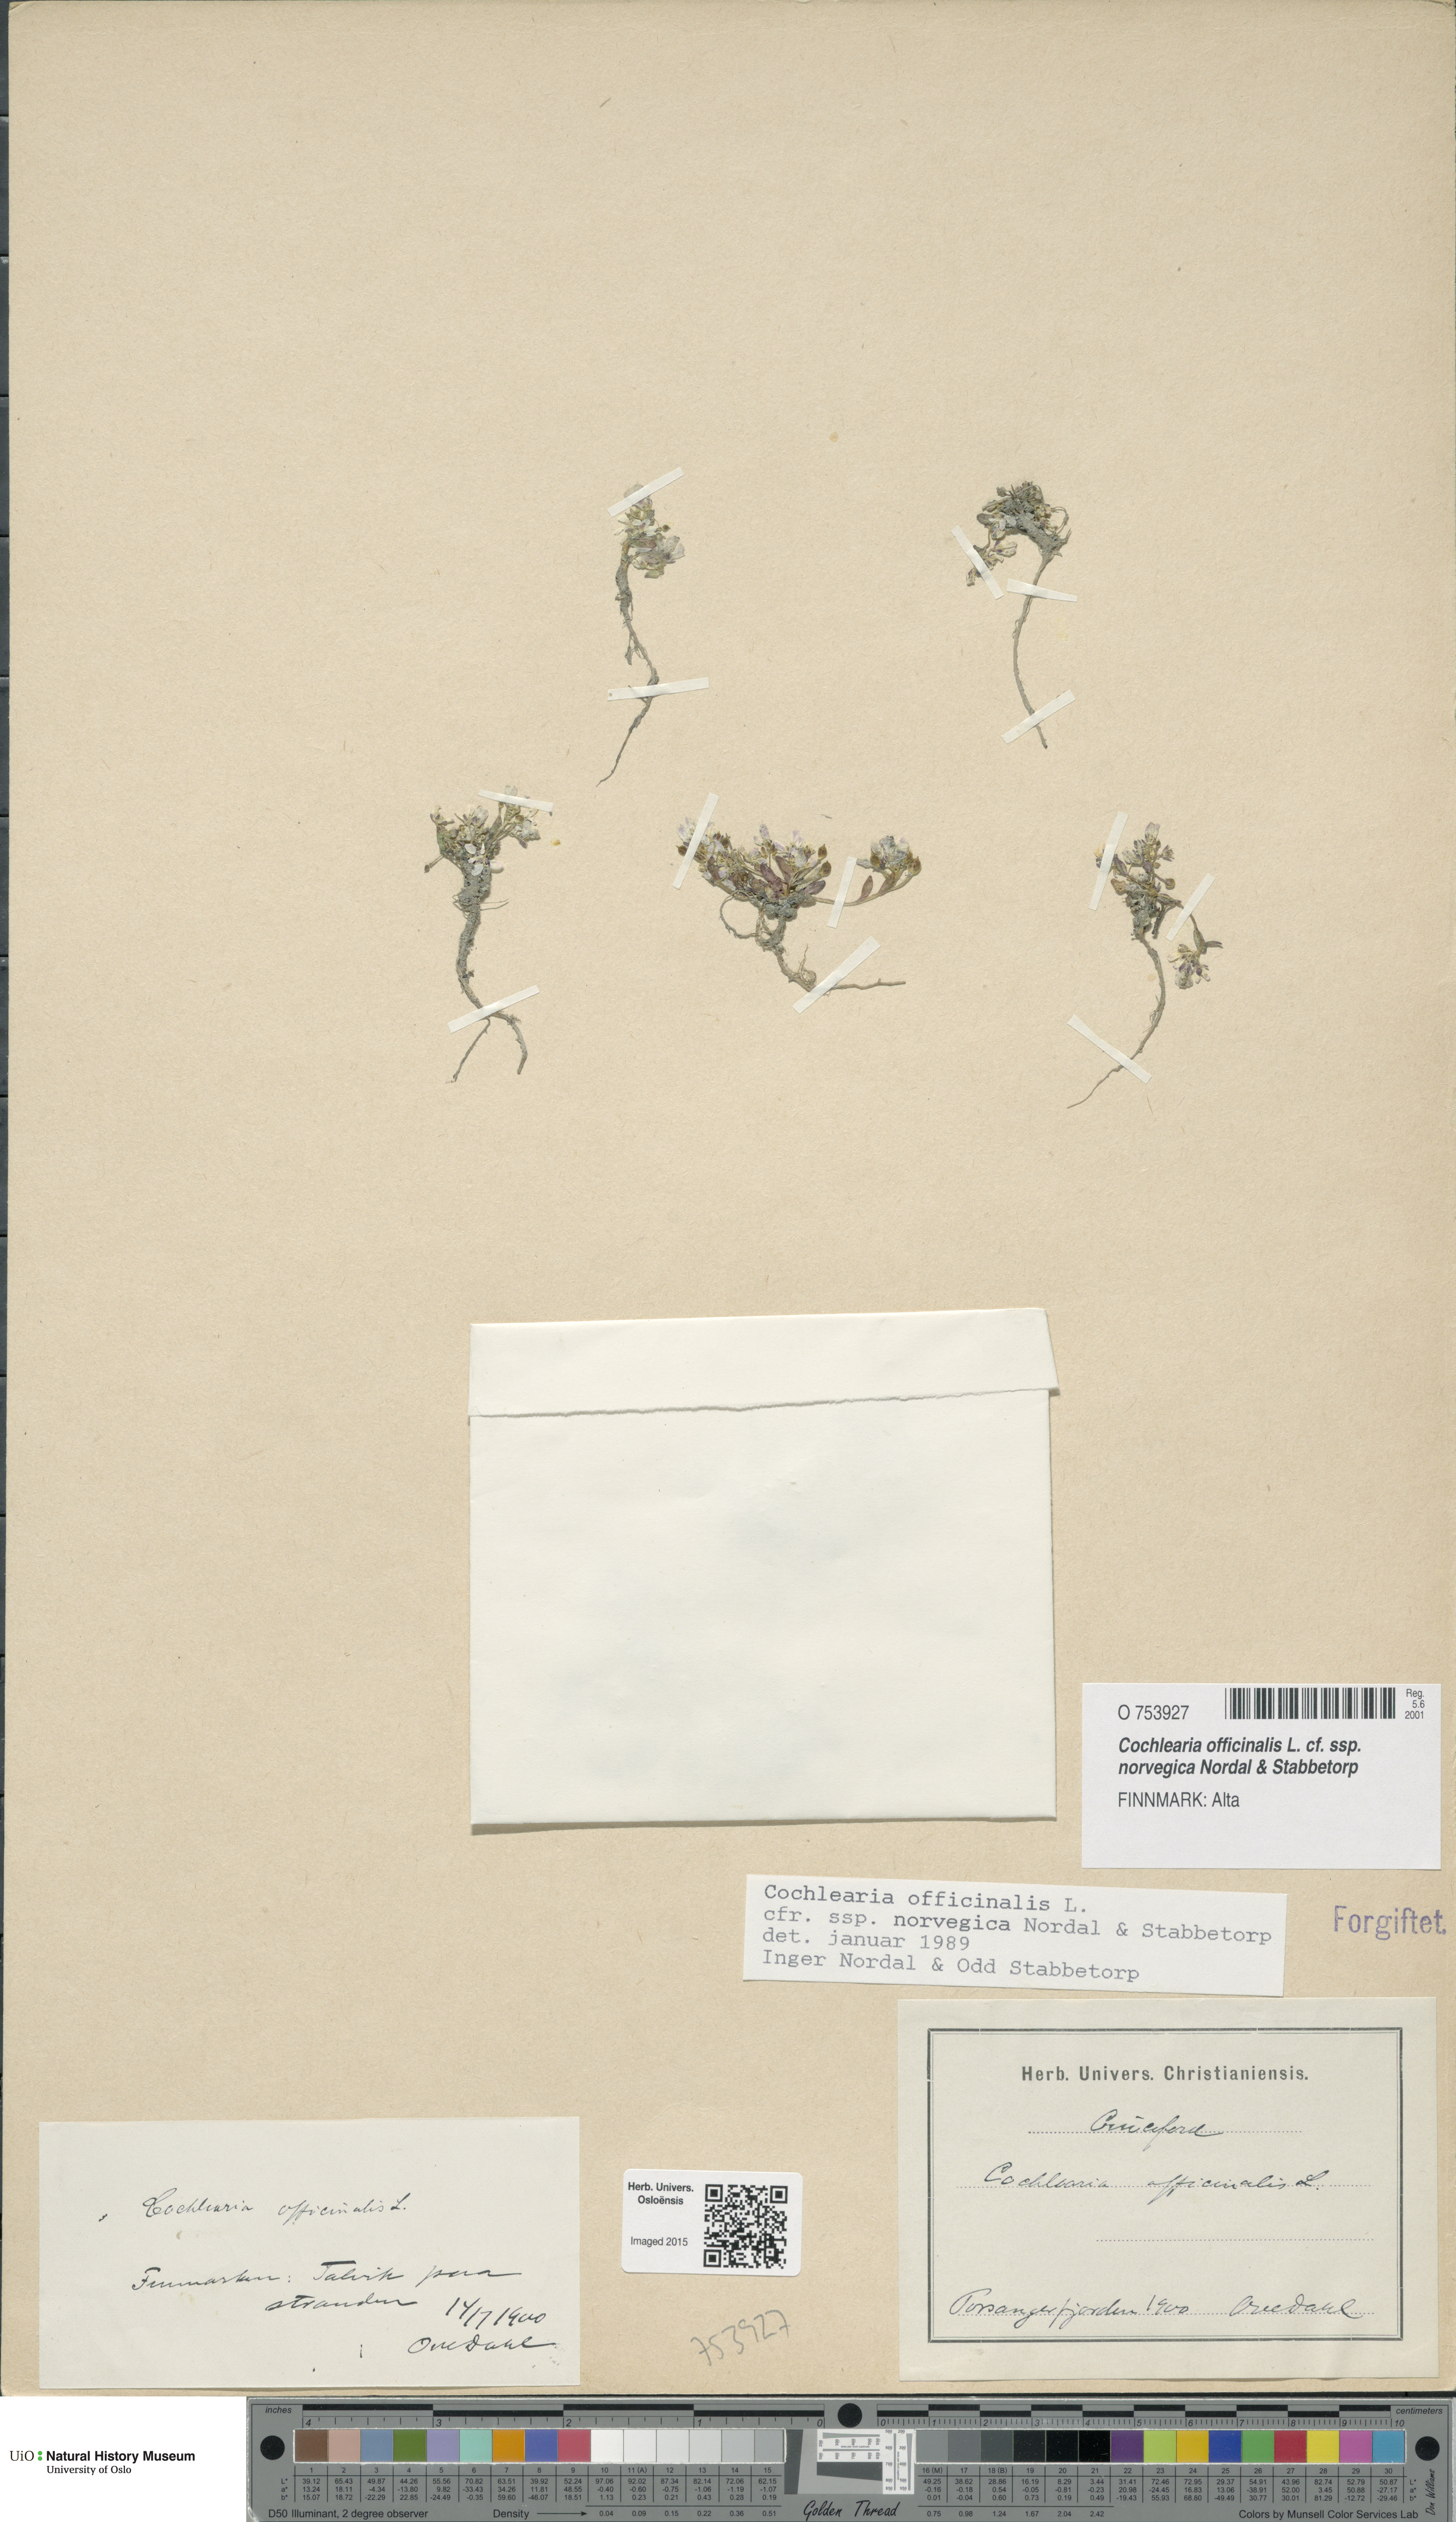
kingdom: Plantae
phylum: Tracheophyta
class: Magnoliopsida
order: Brassicales
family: Brassicaceae
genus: Cochlearia
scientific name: Cochlearia officinalis
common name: Scurvy-grass
